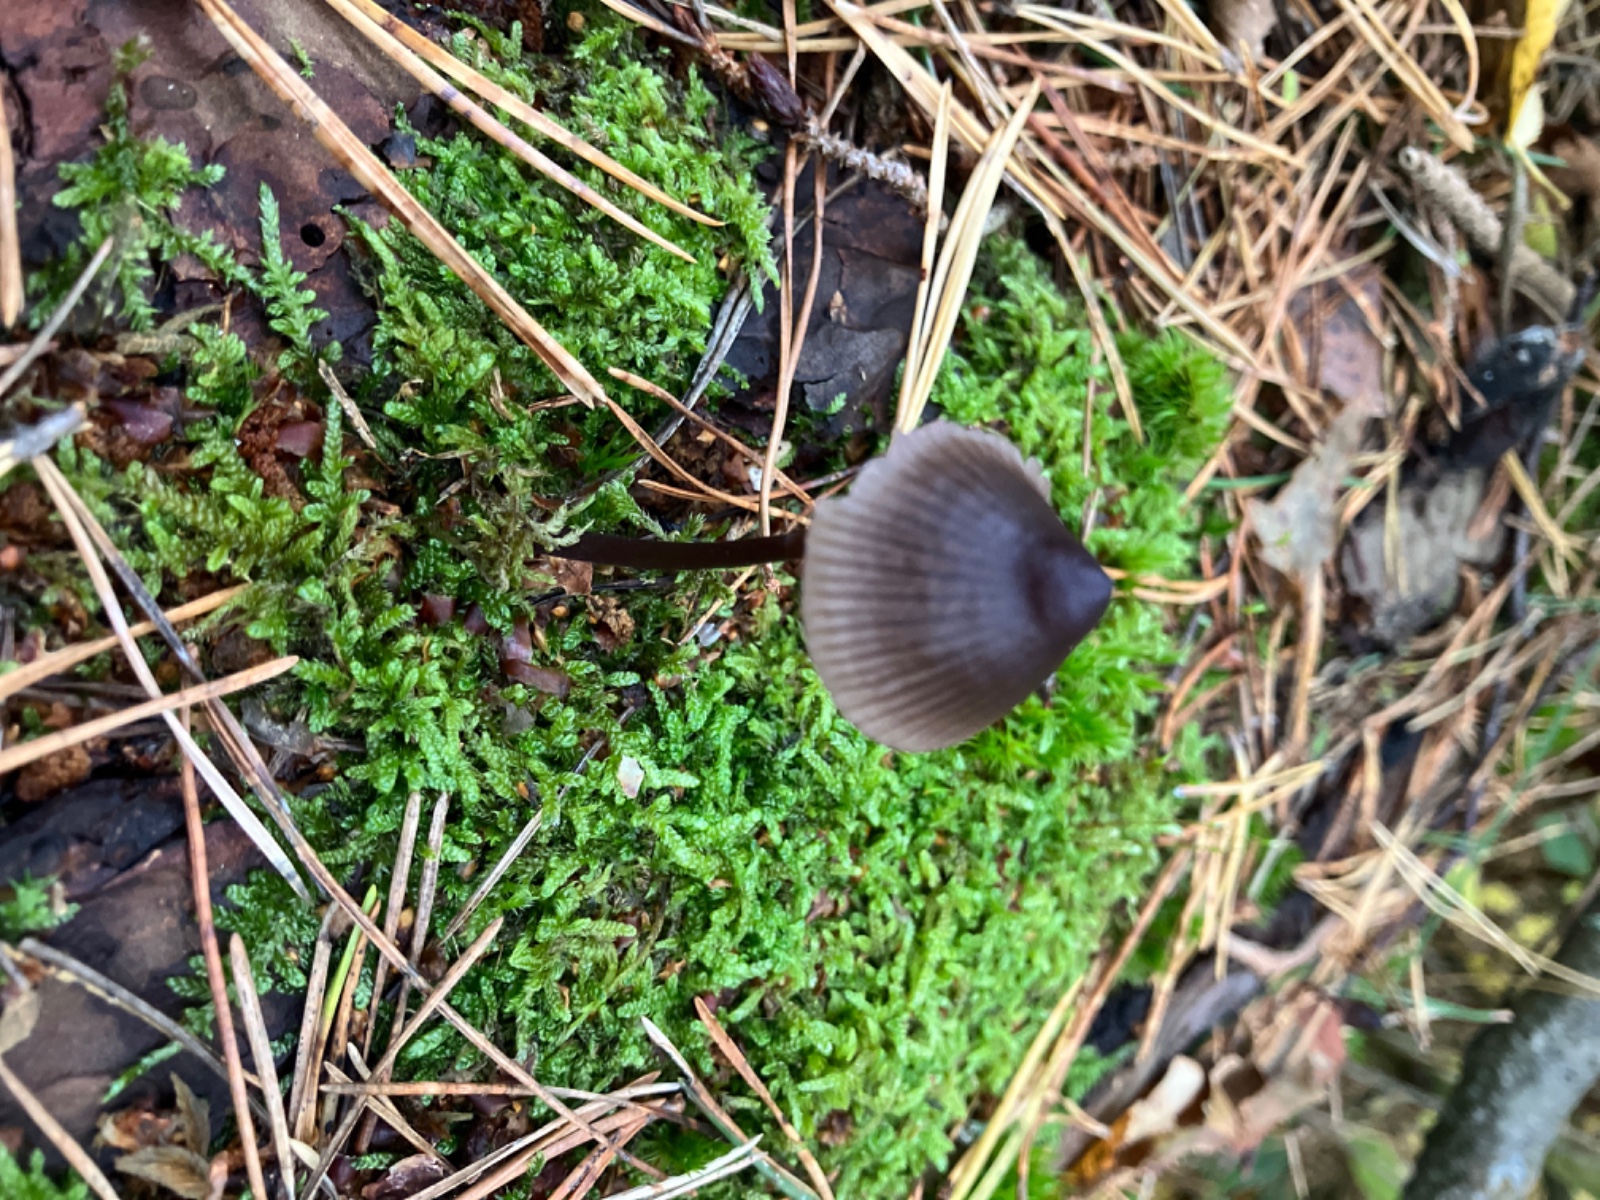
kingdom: Fungi
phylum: Basidiomycota
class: Agaricomycetes
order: Agaricales
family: Mycenaceae
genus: Mycena
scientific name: Mycena purpureofusca
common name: purpur-huesvamp
